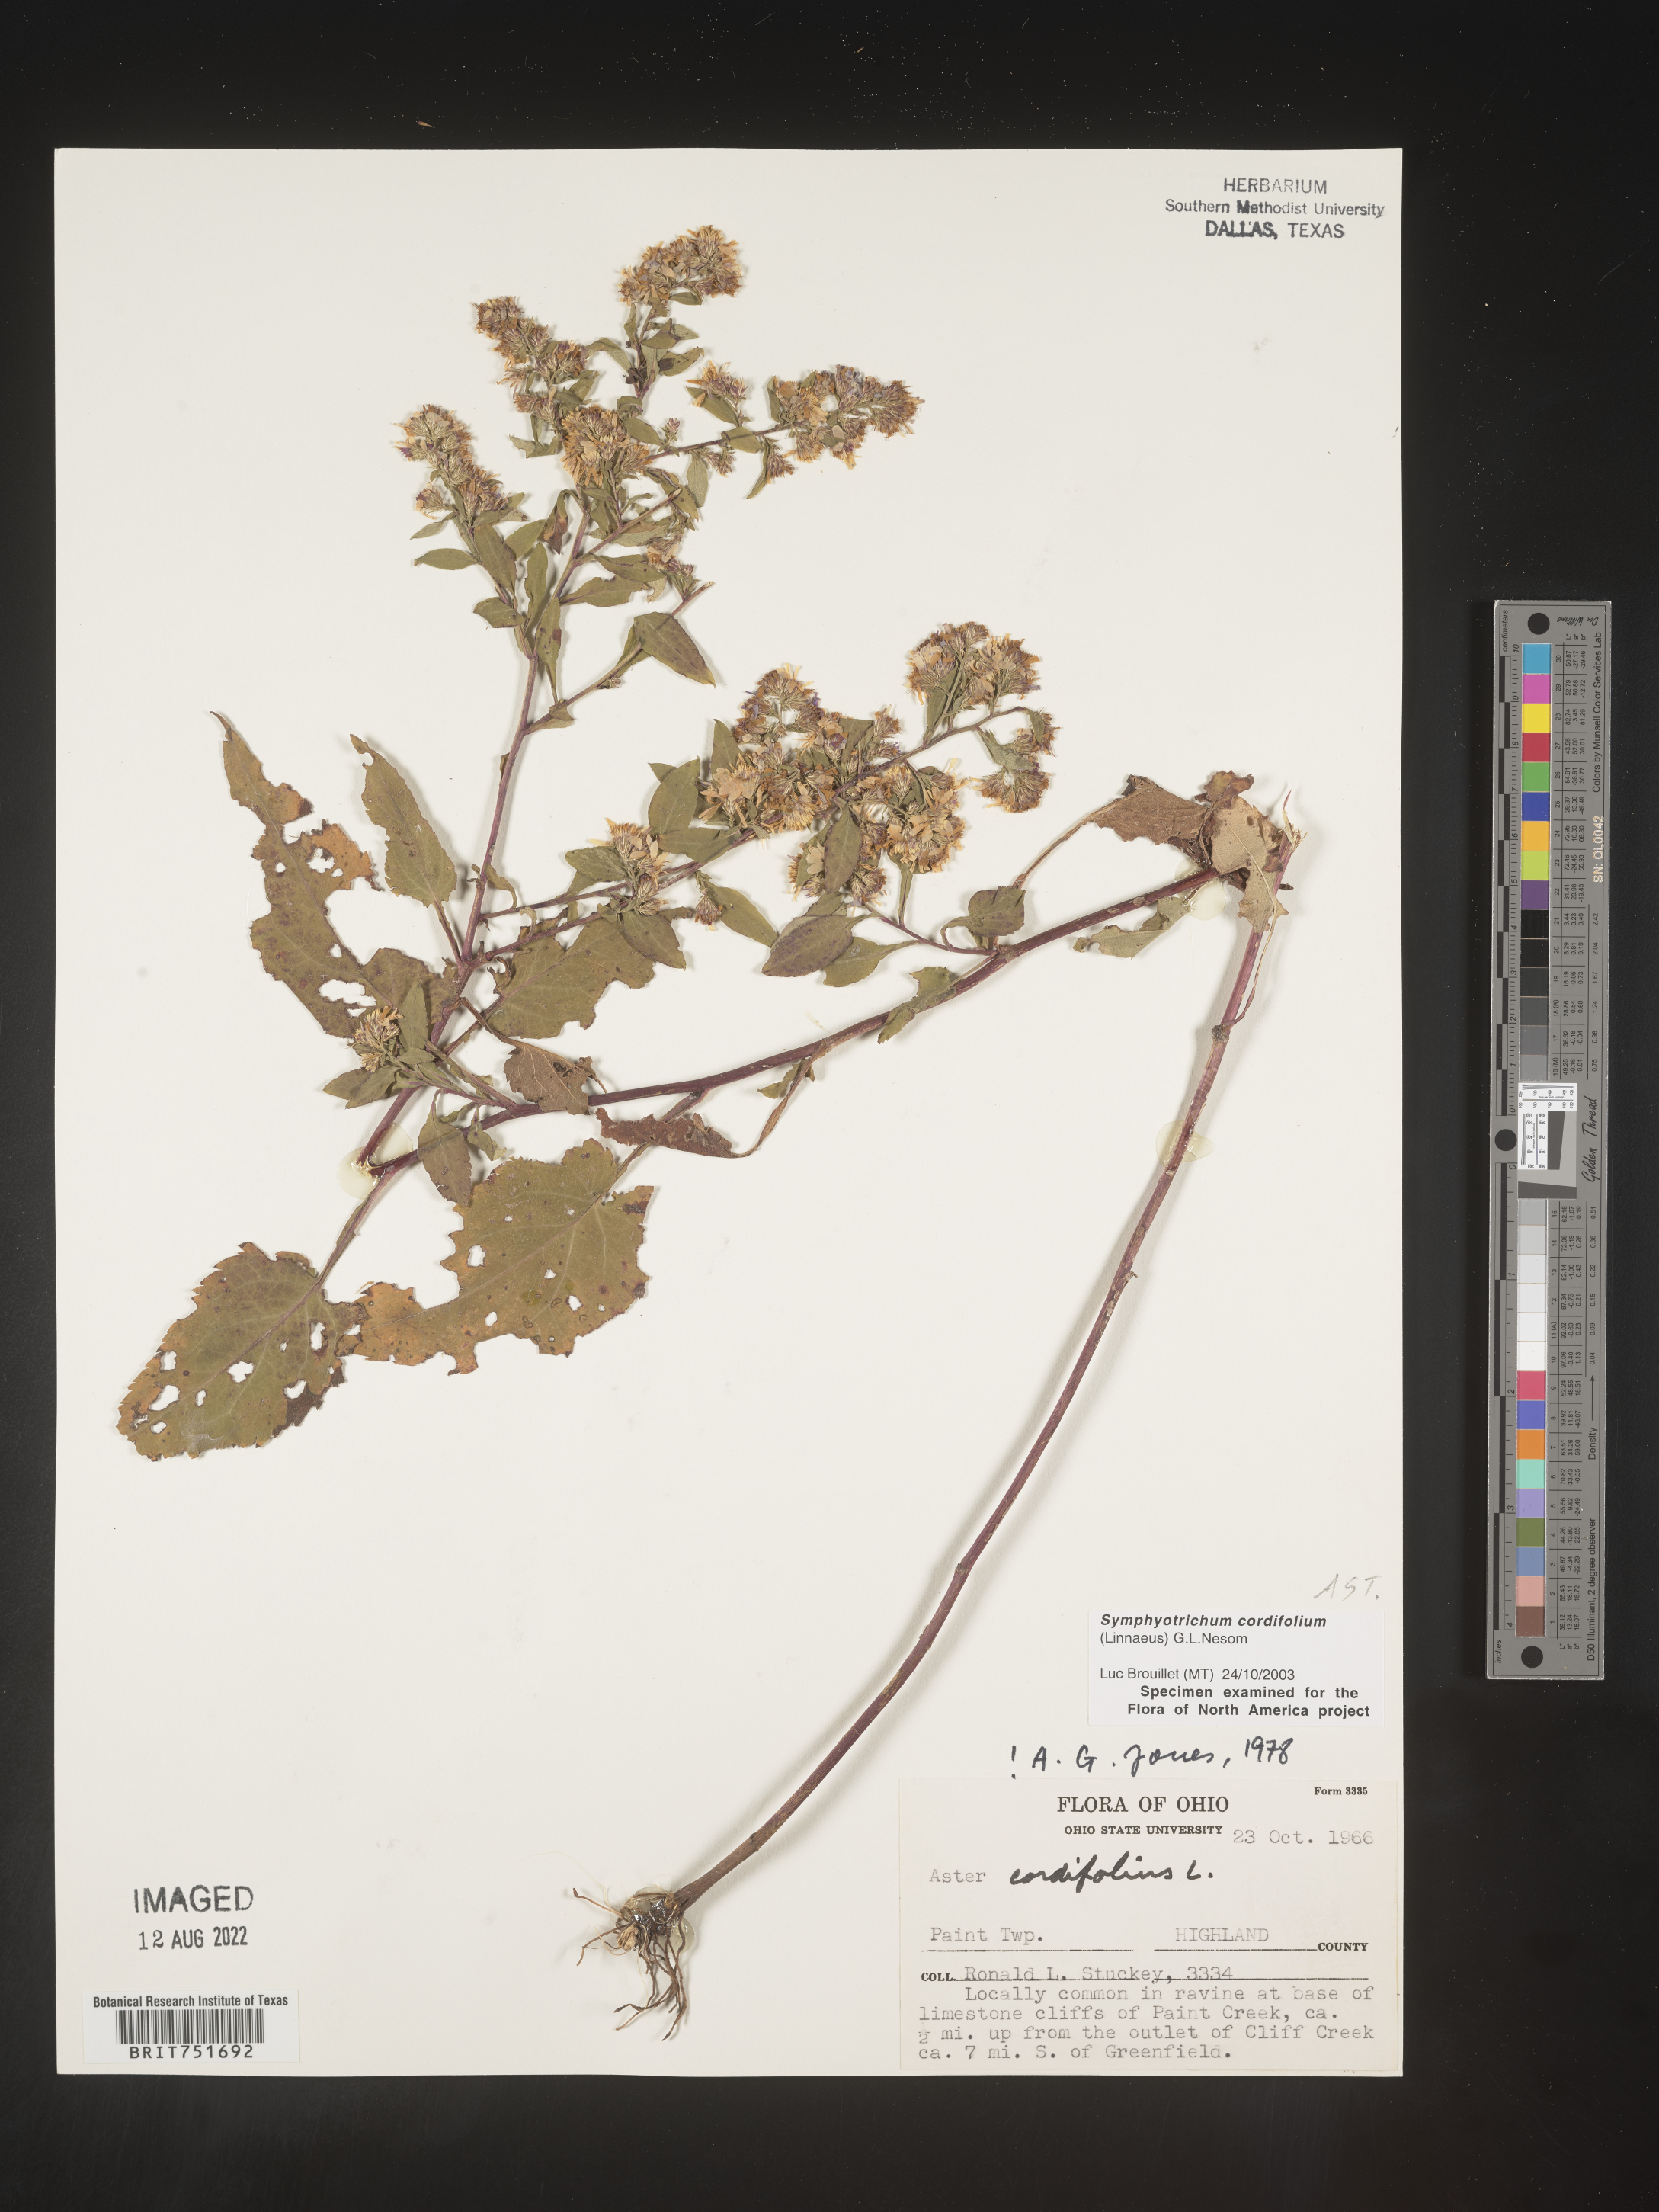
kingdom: Plantae
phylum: Tracheophyta
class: Magnoliopsida
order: Asterales
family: Asteraceae
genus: Symphyotrichum
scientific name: Symphyotrichum cordifolium
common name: Beeweed
